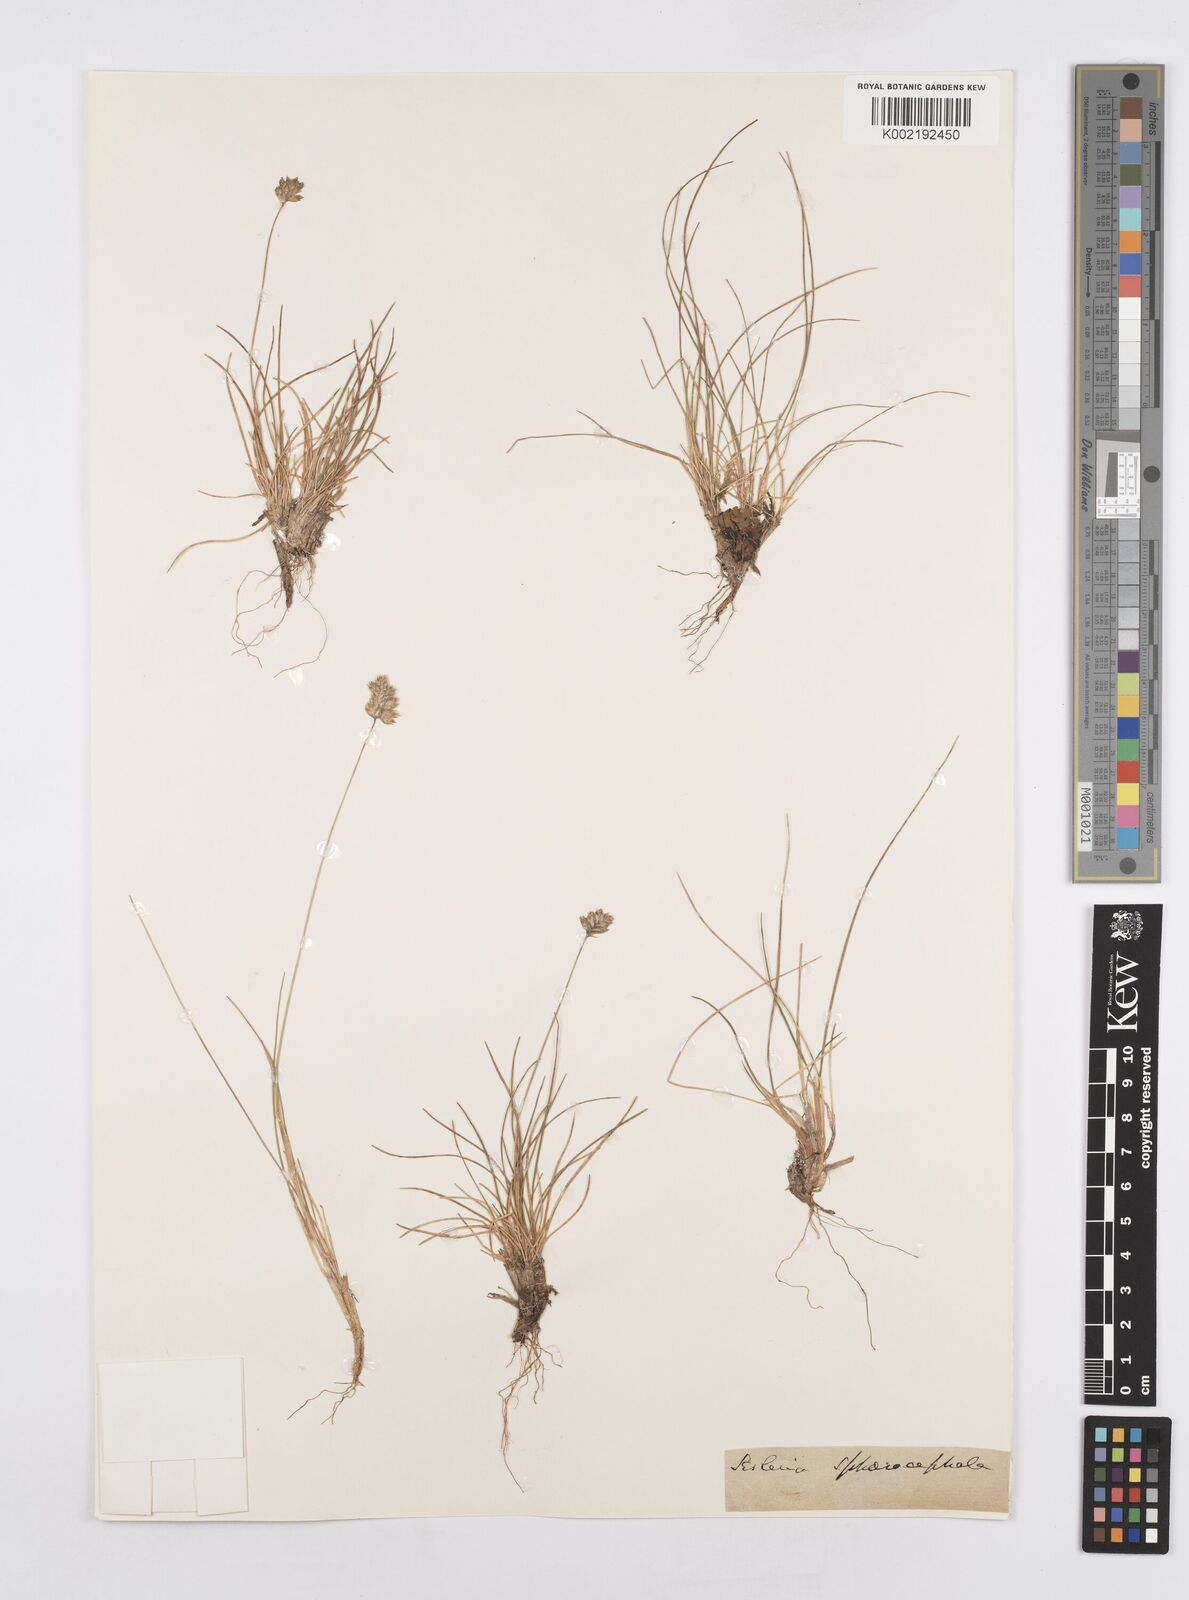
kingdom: Plantae
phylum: Tracheophyta
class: Liliopsida
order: Poales
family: Poaceae
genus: Sesleriella
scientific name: Sesleriella sphaerocephala
